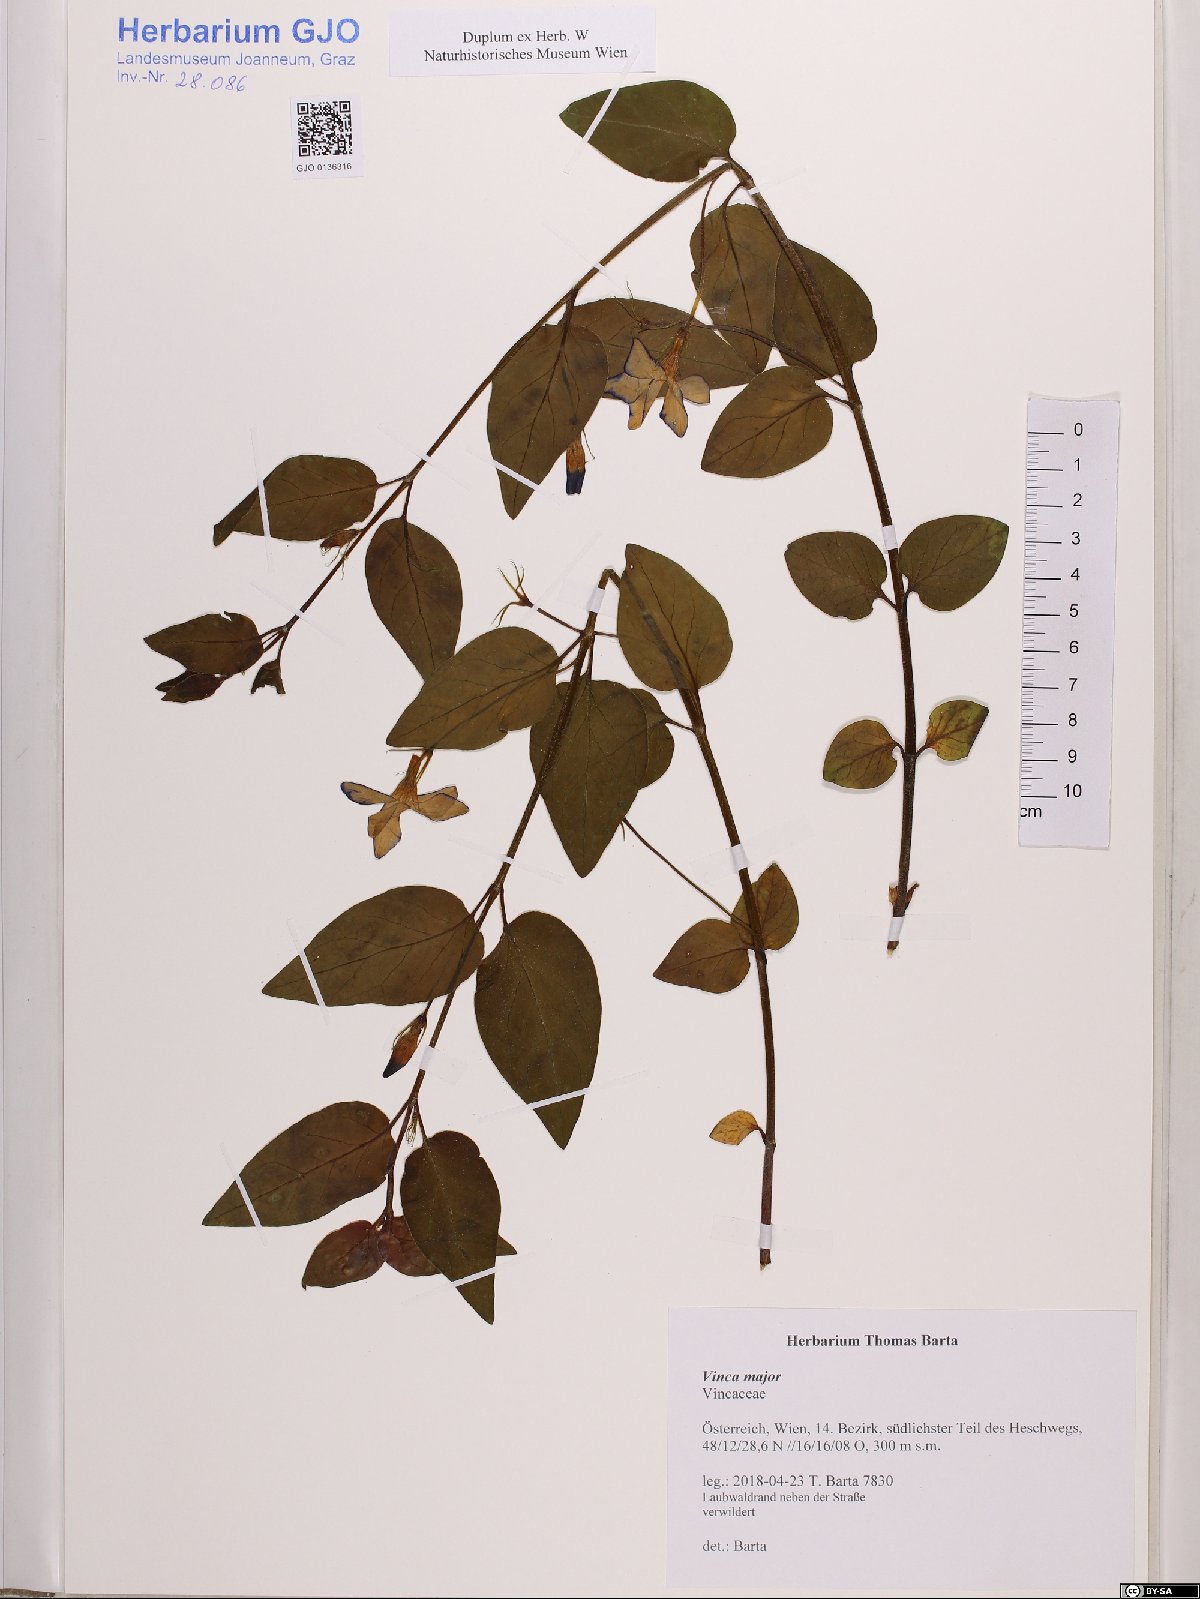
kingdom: Plantae
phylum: Tracheophyta
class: Magnoliopsida
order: Gentianales
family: Apocynaceae
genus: Vinca
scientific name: Vinca major
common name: Greater periwinkle
